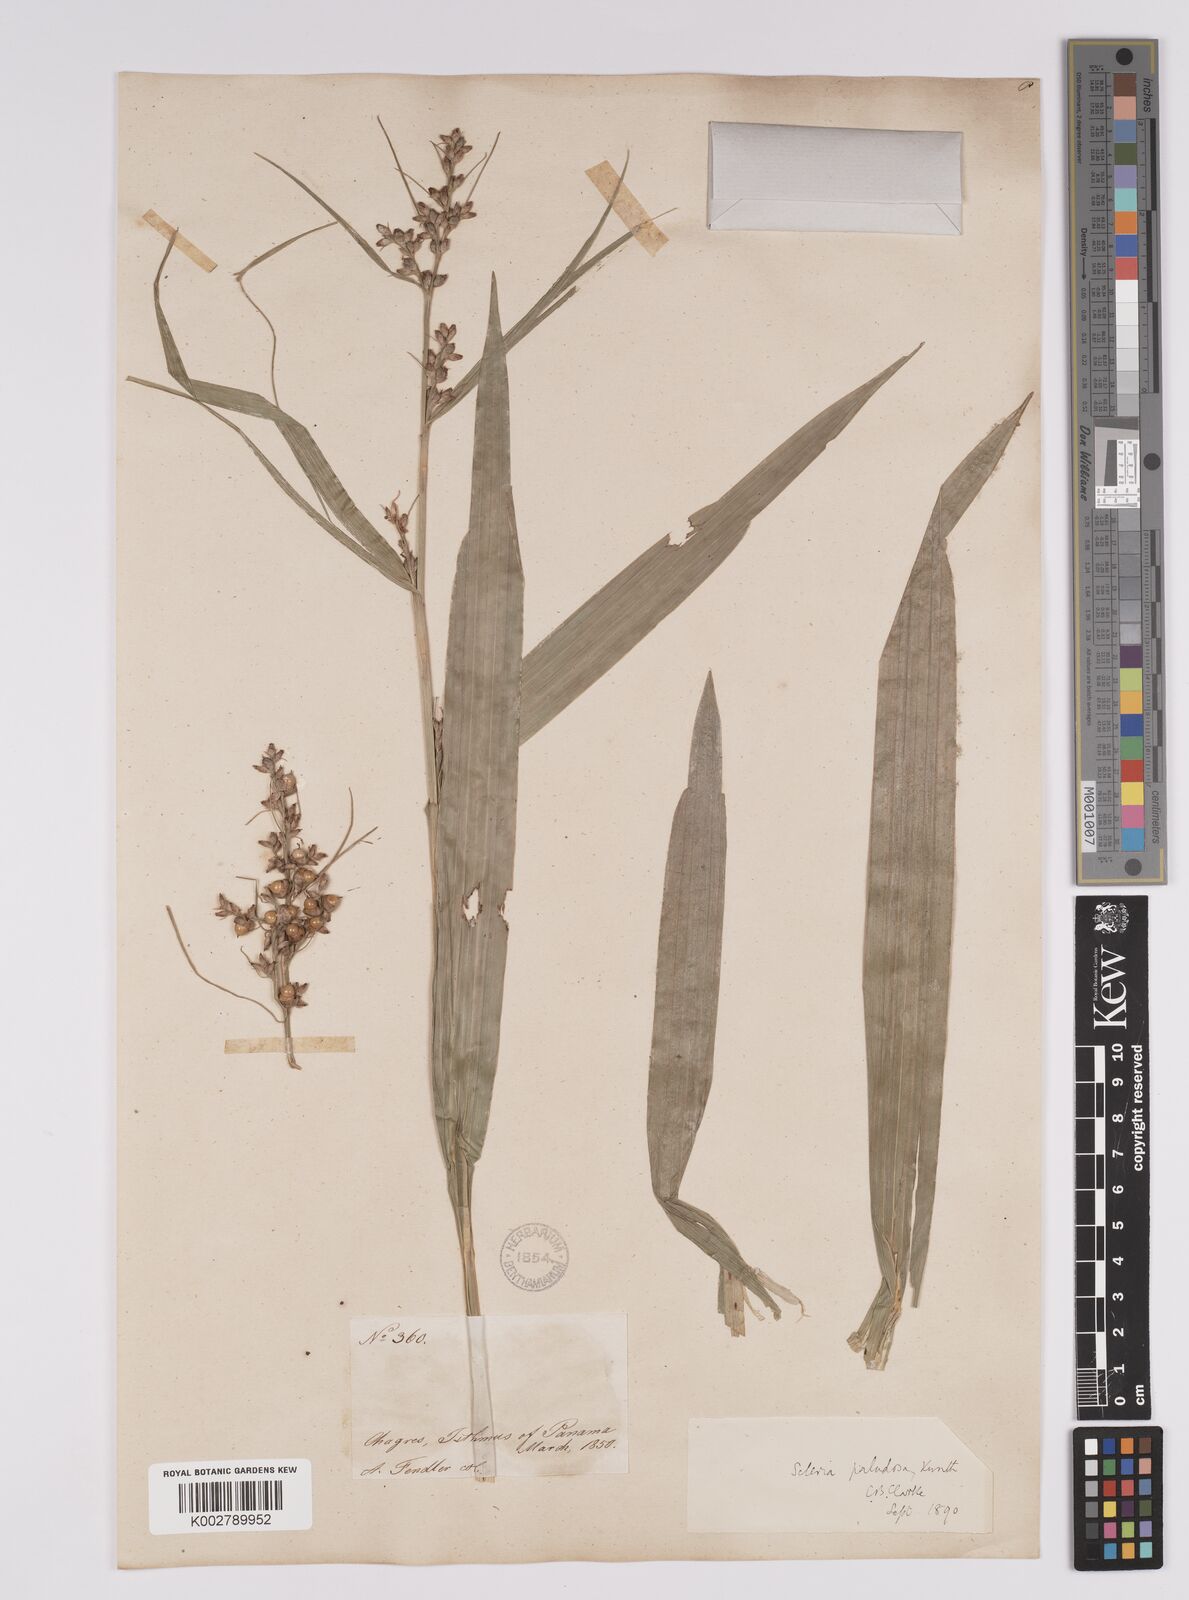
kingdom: Plantae
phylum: Tracheophyta
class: Liliopsida
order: Poales
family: Cyperaceae
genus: Scleria
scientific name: Scleria macrophylla
